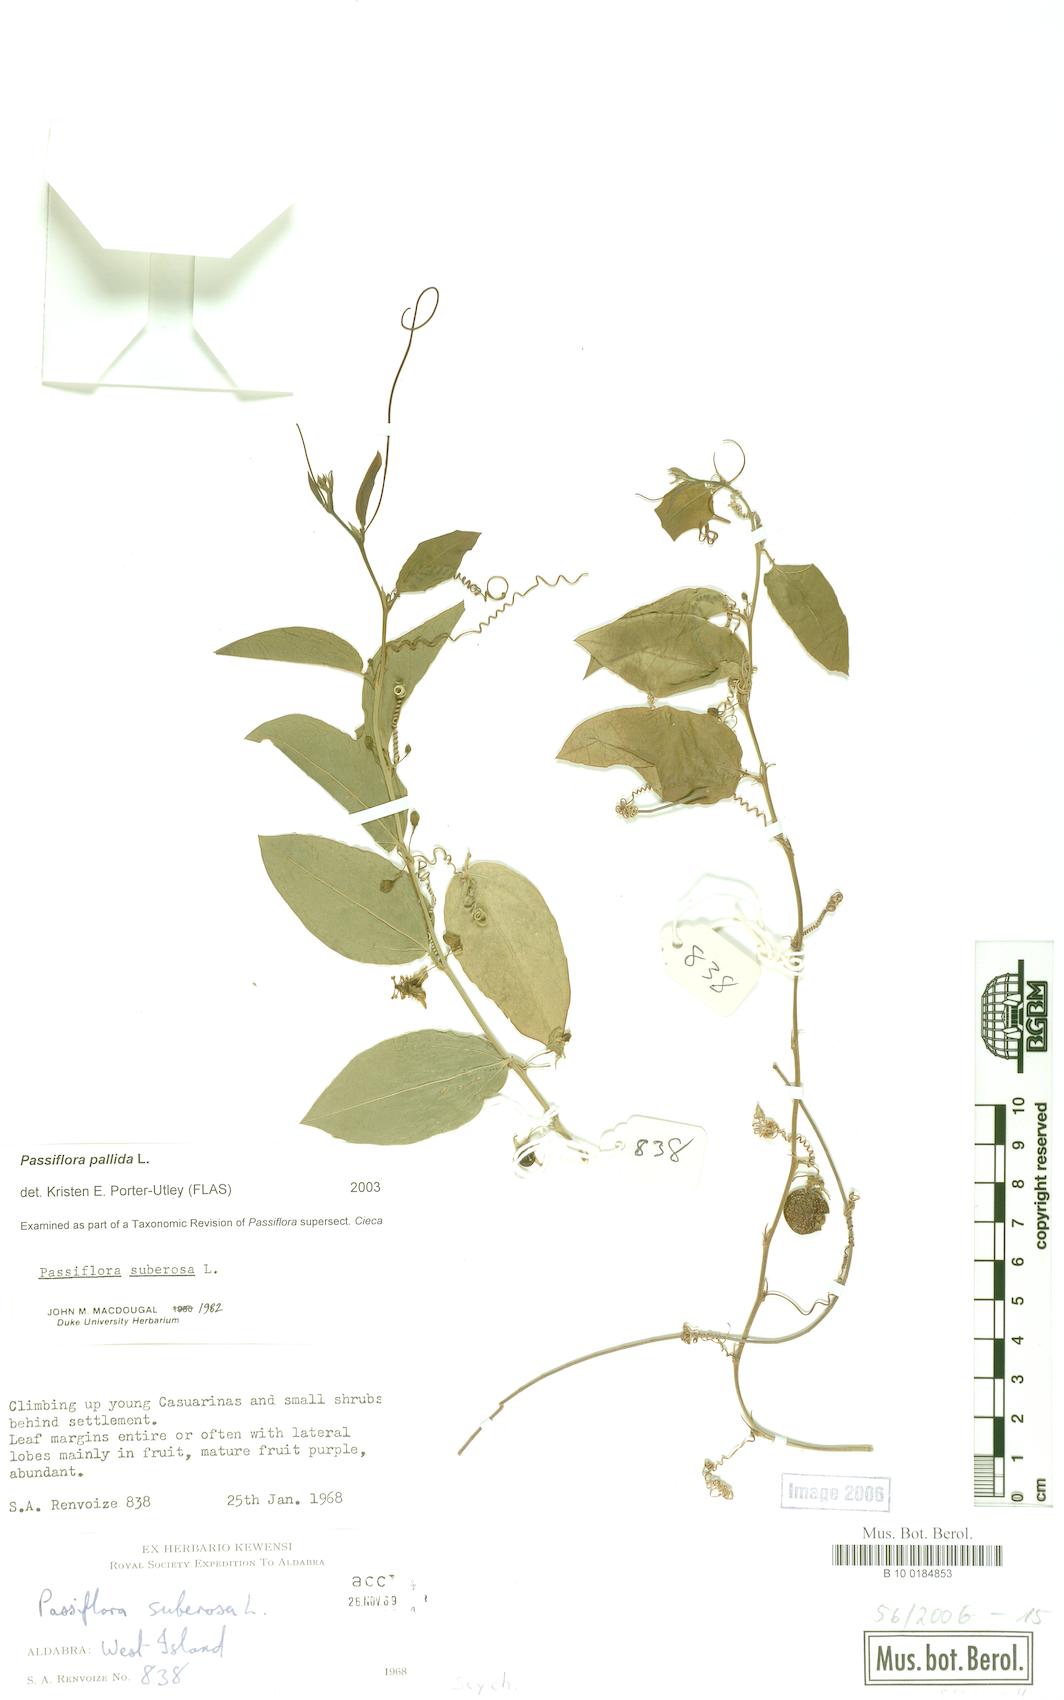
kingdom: Plantae
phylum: Tracheophyta
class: Magnoliopsida
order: Malpighiales
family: Passifloraceae
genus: Passiflora
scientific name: Passiflora pallida
